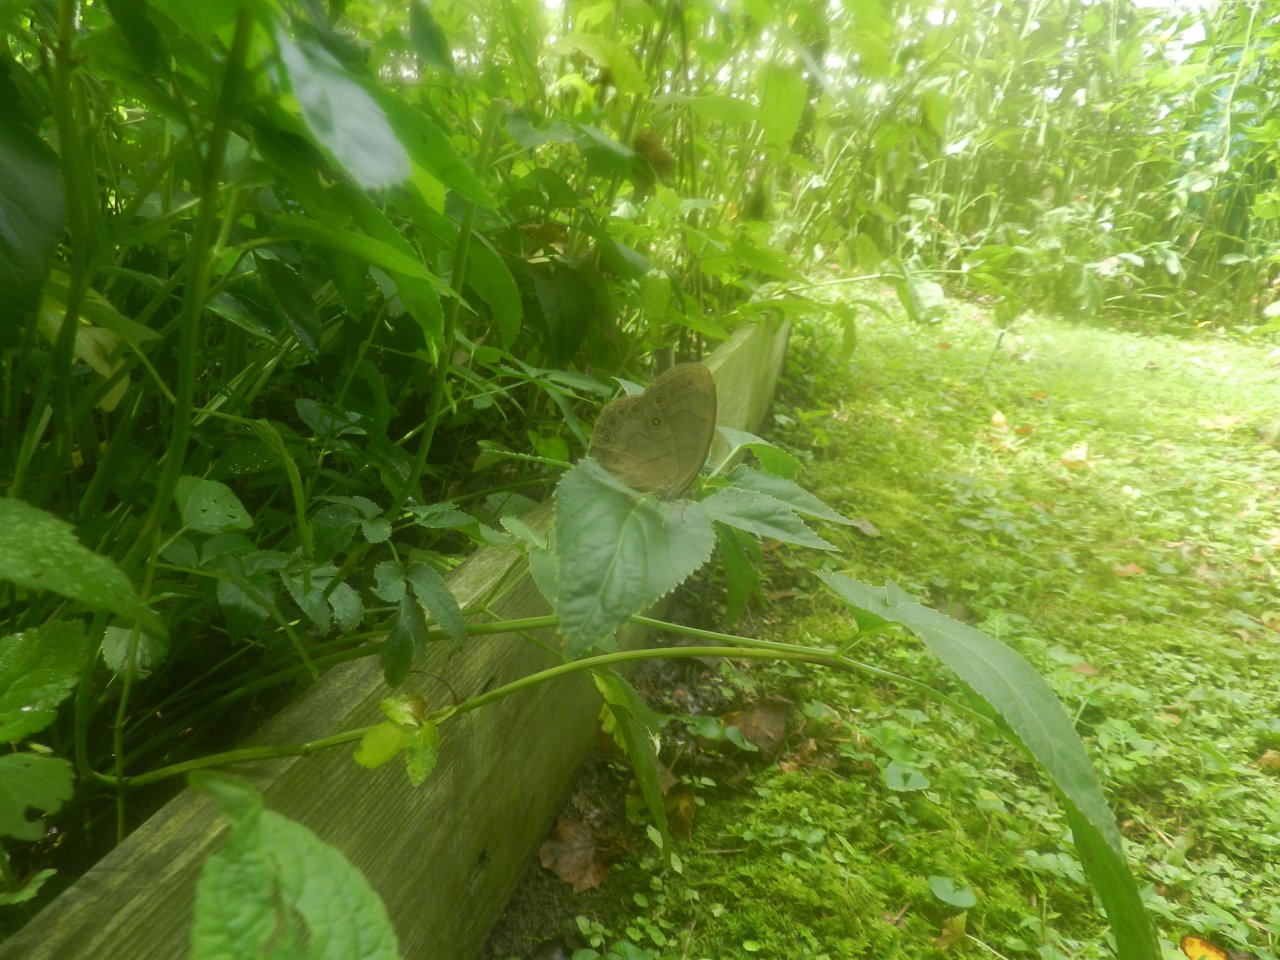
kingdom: Animalia
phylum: Arthropoda
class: Insecta
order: Lepidoptera
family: Nymphalidae
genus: Lethe
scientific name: Lethe eurydice
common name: Appalachian Eyed Brown
